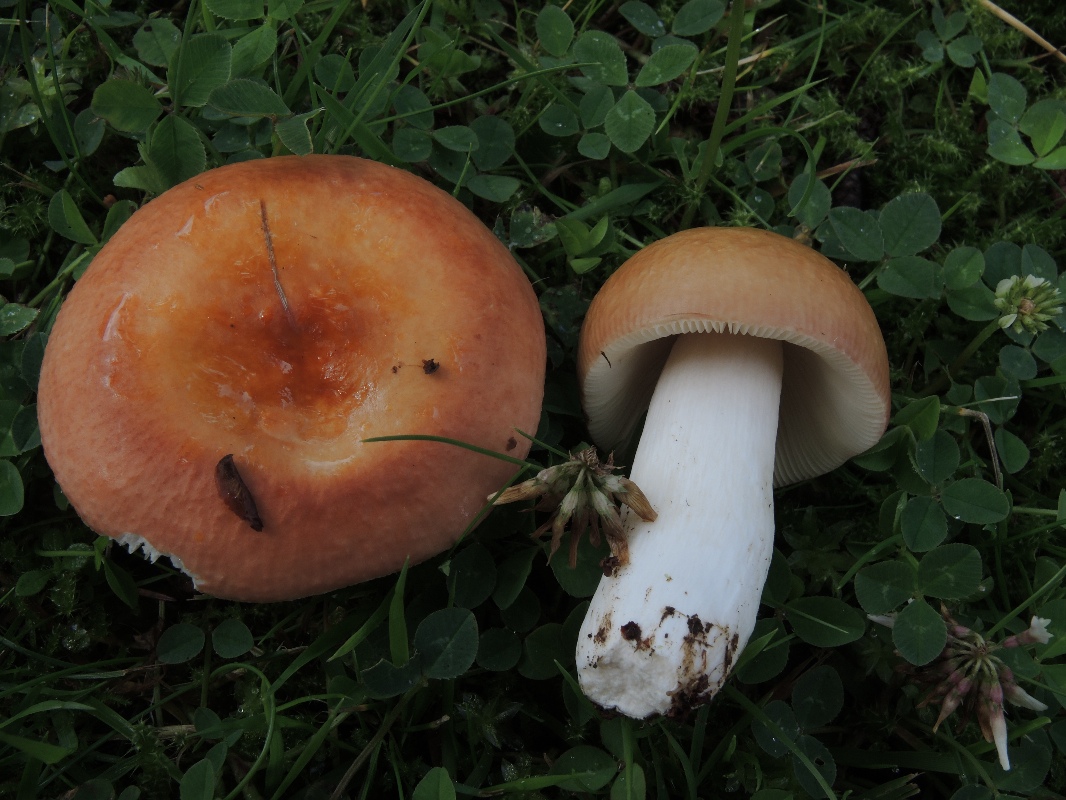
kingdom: Fungi
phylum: Basidiomycota
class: Agaricomycetes
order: Russulales
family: Russulaceae
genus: Russula
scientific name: Russula velenovskyi
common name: orangerød skørhat
